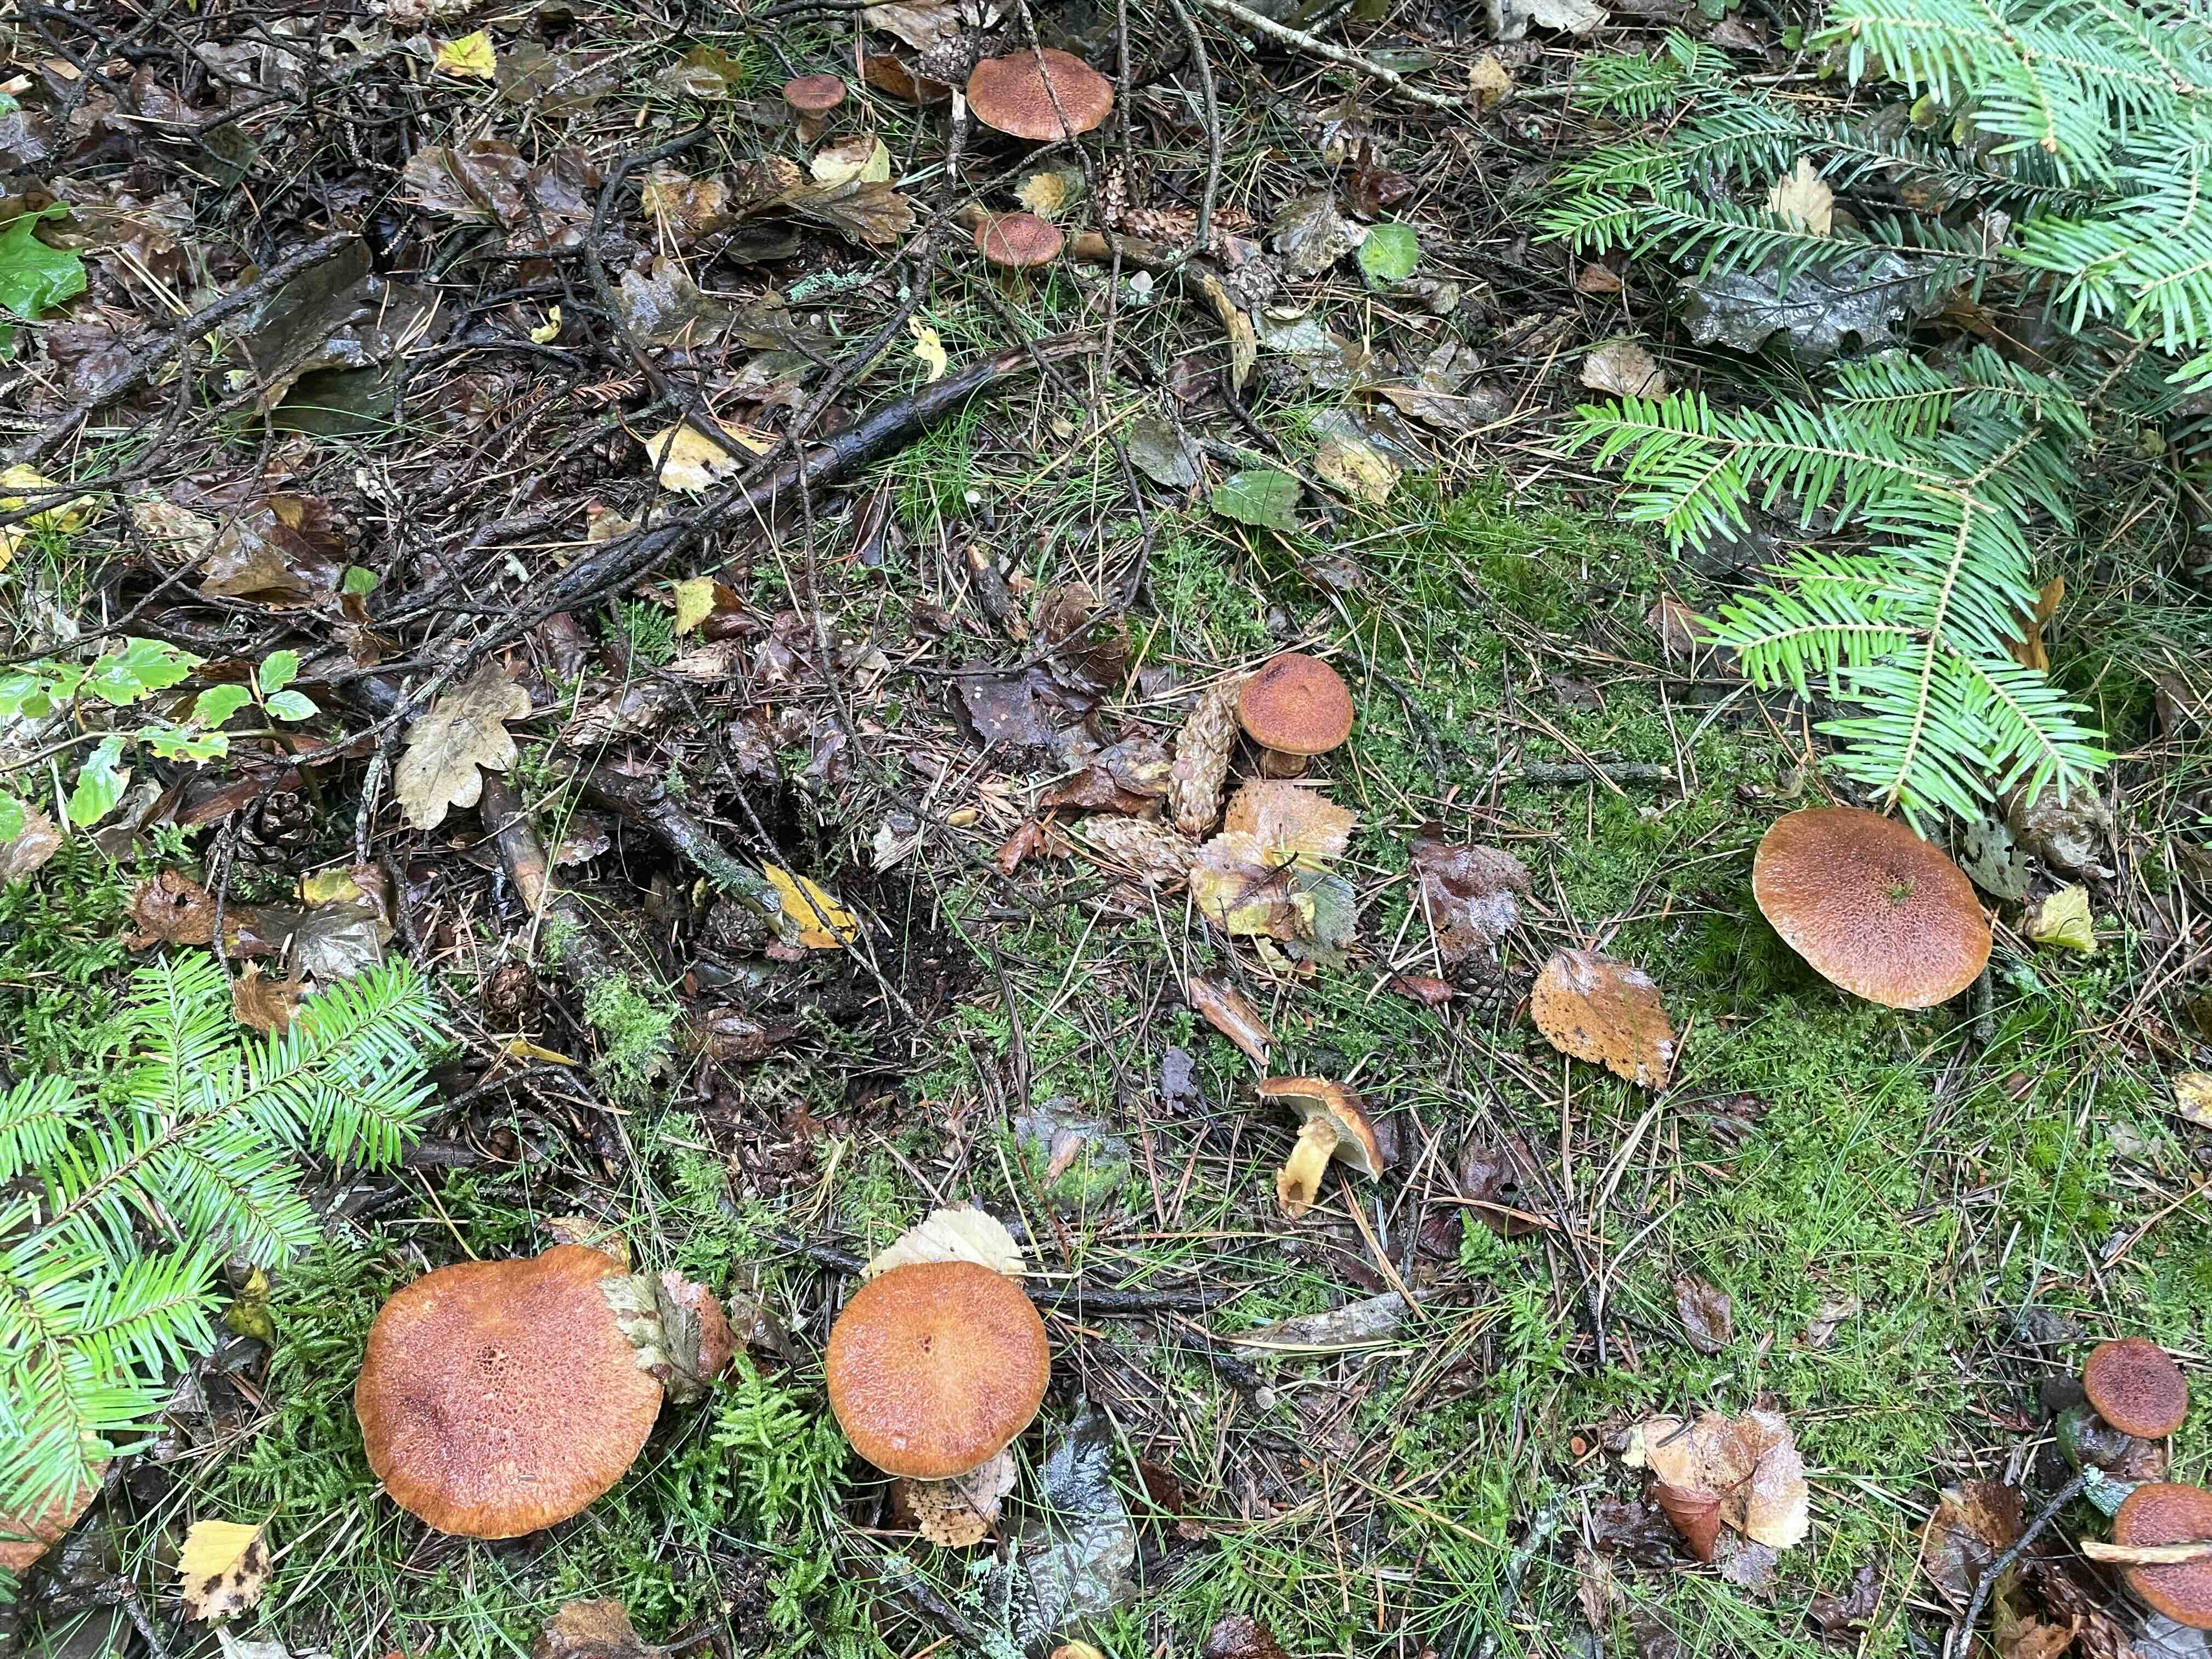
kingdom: Fungi
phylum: Basidiomycota
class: Agaricomycetes
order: Boletales
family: Suillaceae
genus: Suillus
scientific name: Suillus cavipes
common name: hulstokket slimrørhat
